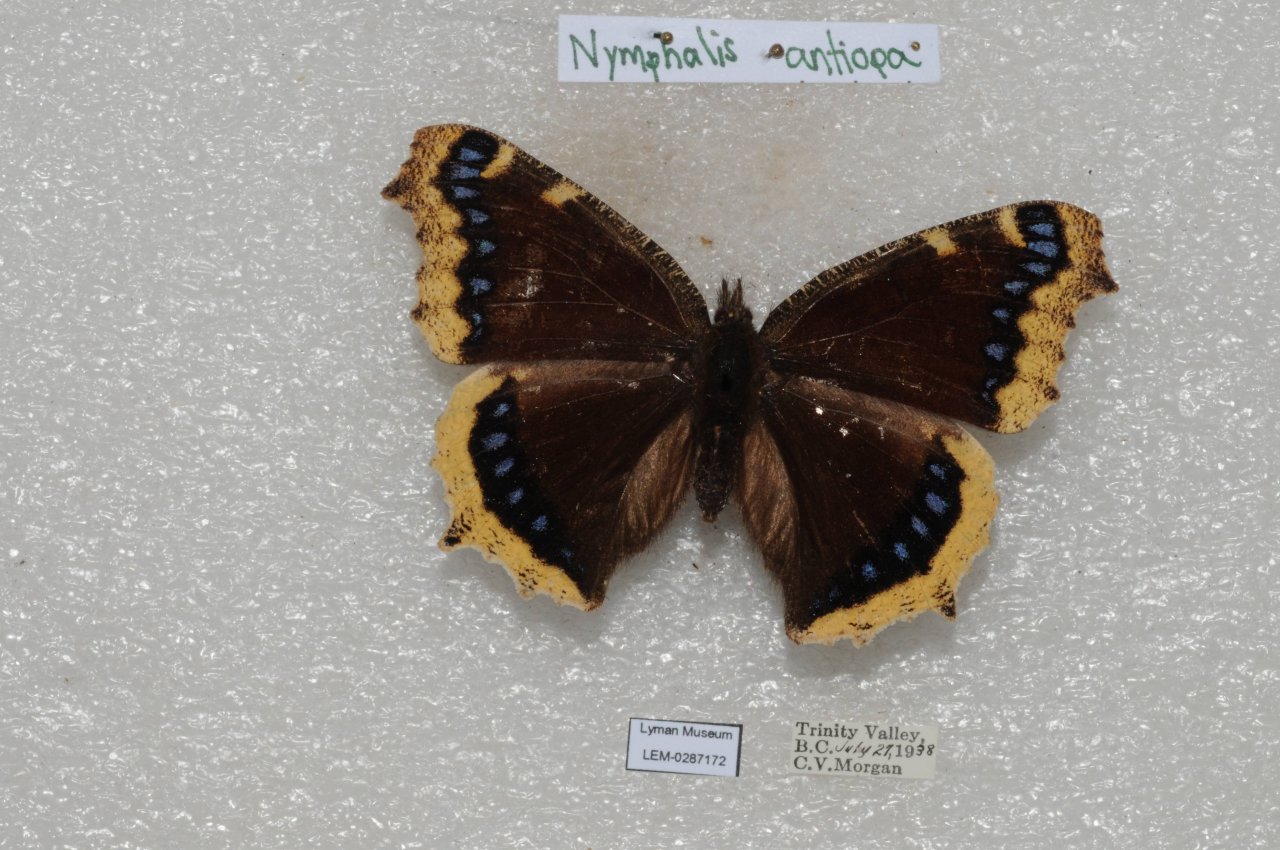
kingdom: Animalia
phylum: Arthropoda
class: Insecta
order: Lepidoptera
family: Nymphalidae
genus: Nymphalis
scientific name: Nymphalis antiopa
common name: Mourning Cloak
